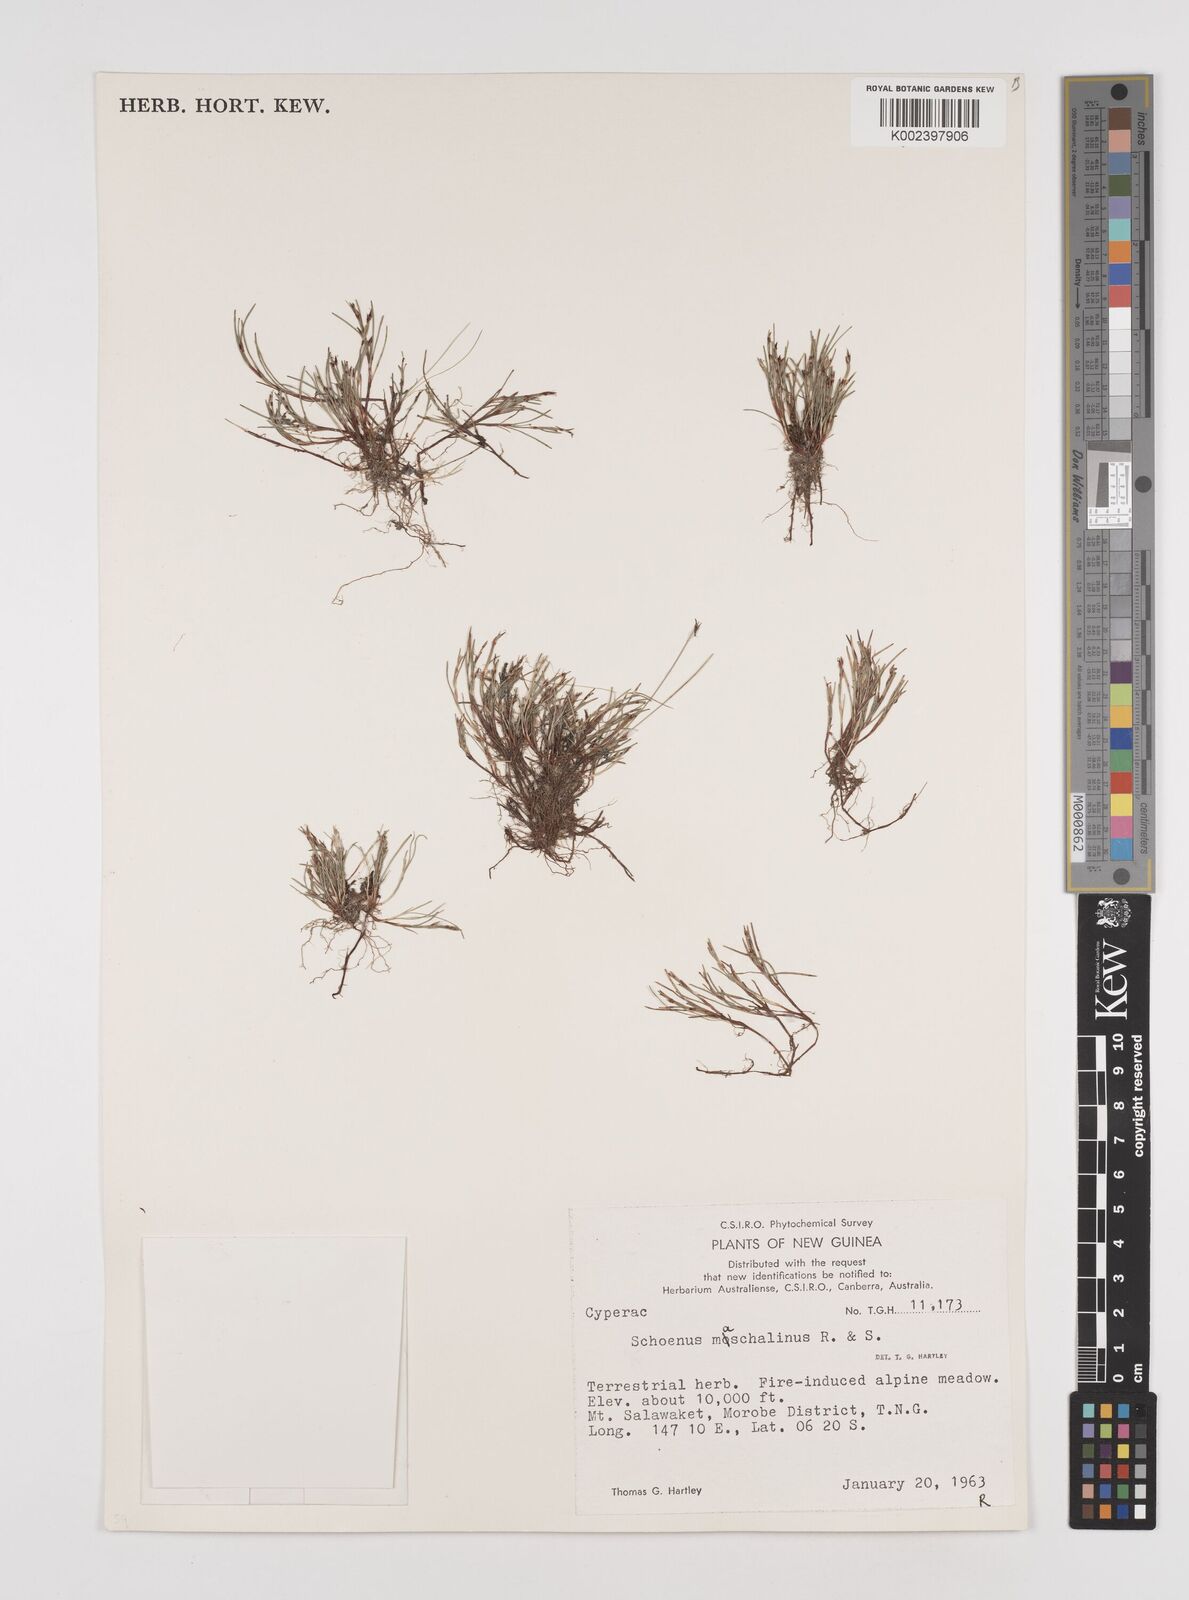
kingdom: Plantae
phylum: Tracheophyta
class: Liliopsida
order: Poales
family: Cyperaceae
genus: Schoenus
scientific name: Schoenus maschalinus
